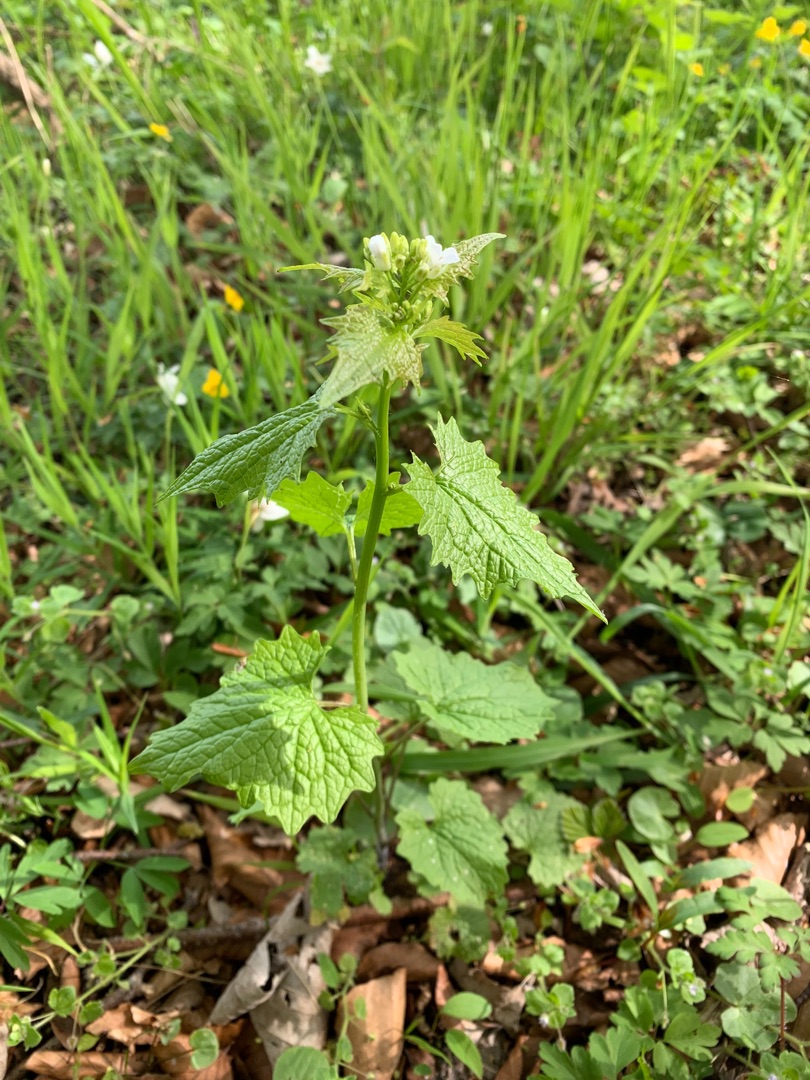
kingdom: Plantae
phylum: Tracheophyta
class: Magnoliopsida
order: Brassicales
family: Brassicaceae
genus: Alliaria
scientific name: Alliaria petiolata
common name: Løgkarse
